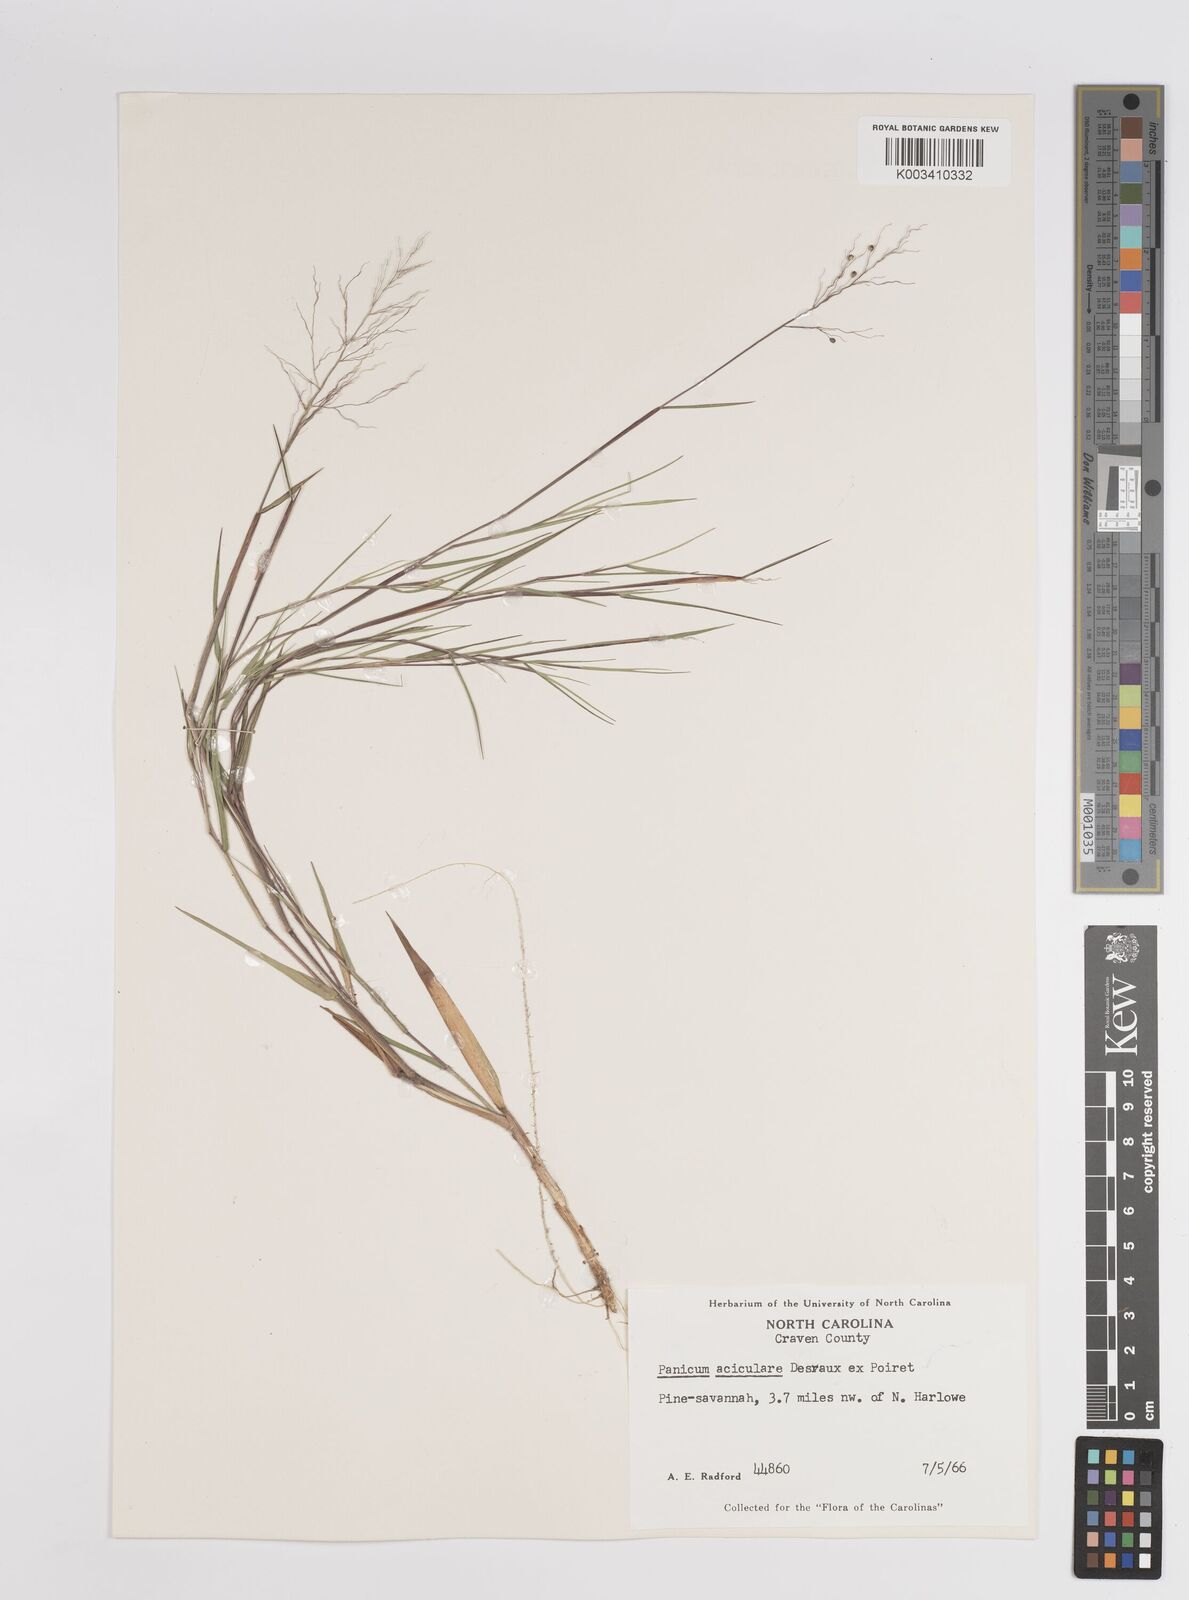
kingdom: Plantae
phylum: Tracheophyta
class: Liliopsida
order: Poales
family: Poaceae
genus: Dichanthelium
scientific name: Dichanthelium aciculare
